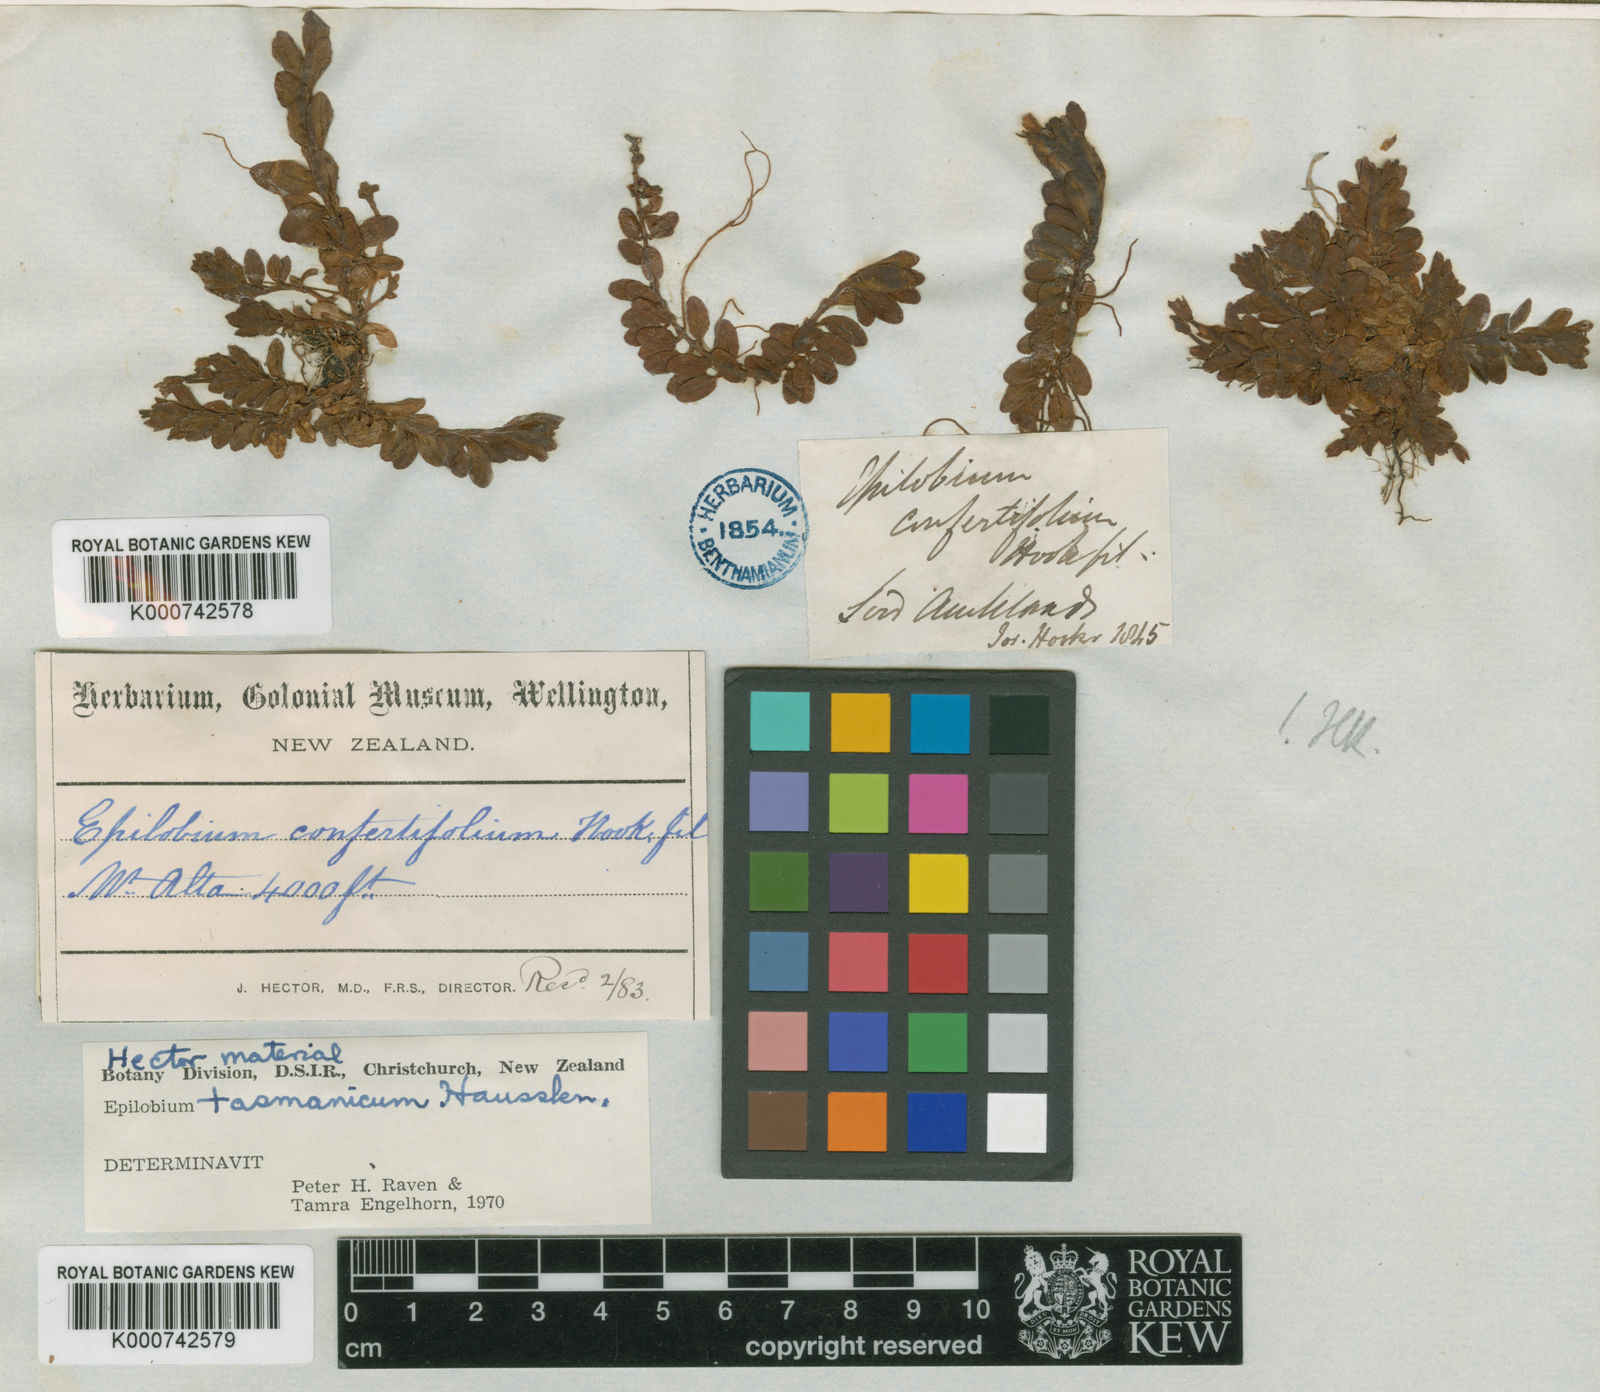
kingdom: Plantae
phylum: Tracheophyta
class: Magnoliopsida
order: Myrtales
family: Onagraceae
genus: Epilobium
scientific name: Epilobium confertifolium
